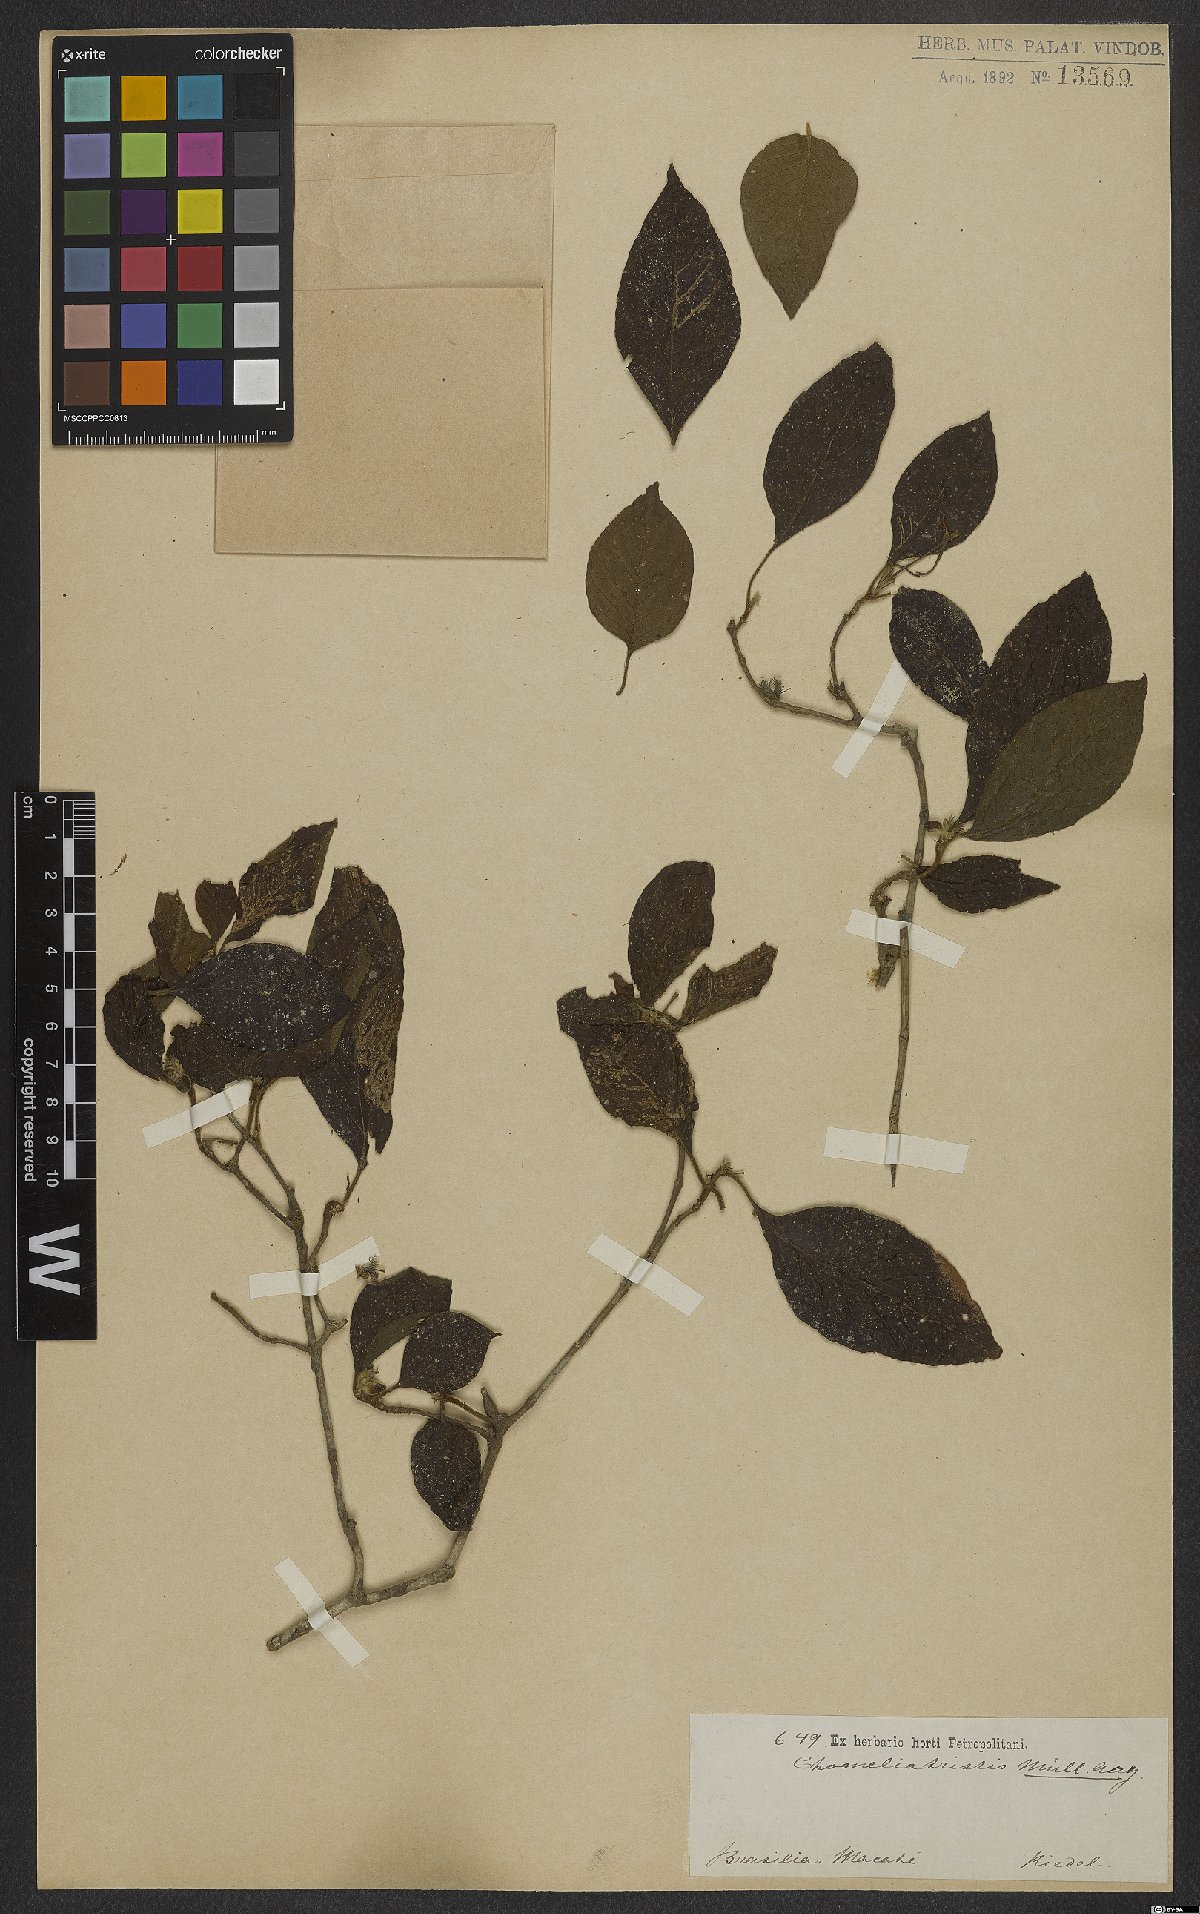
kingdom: Plantae
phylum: Tracheophyta
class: Magnoliopsida
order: Gentianales
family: Rubiaceae
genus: Chomelia
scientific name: Chomelia tristis
